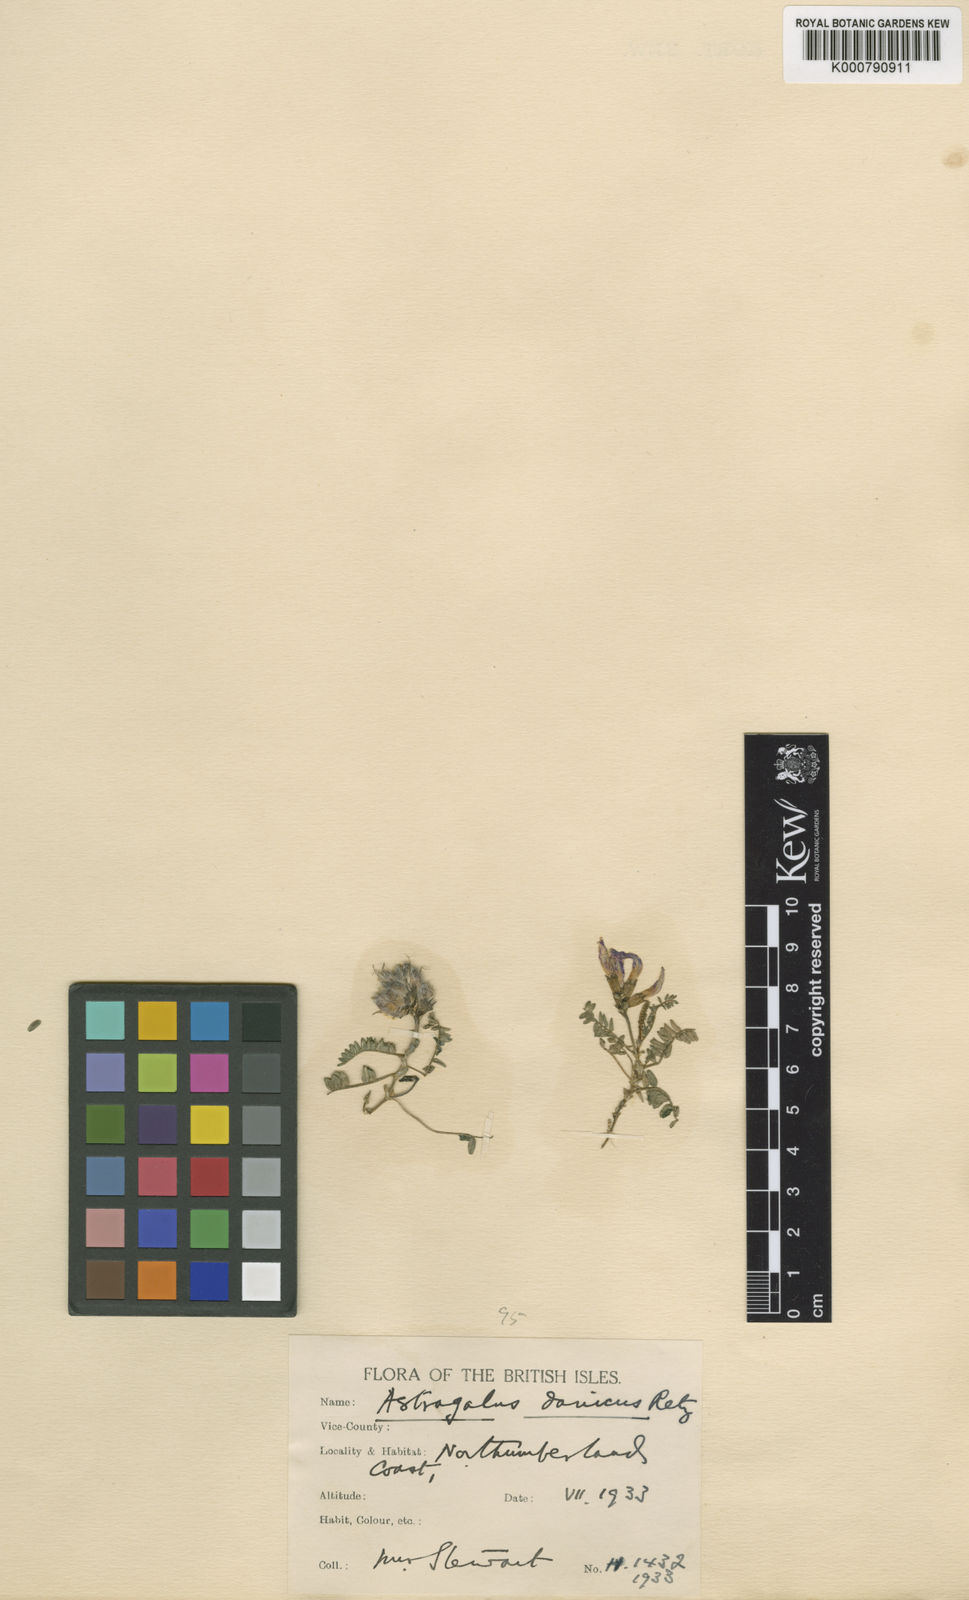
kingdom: Plantae
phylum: Tracheophyta
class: Magnoliopsida
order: Fabales
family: Fabaceae
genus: Astragalus
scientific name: Astragalus danicus
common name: Purple milk-vetch
